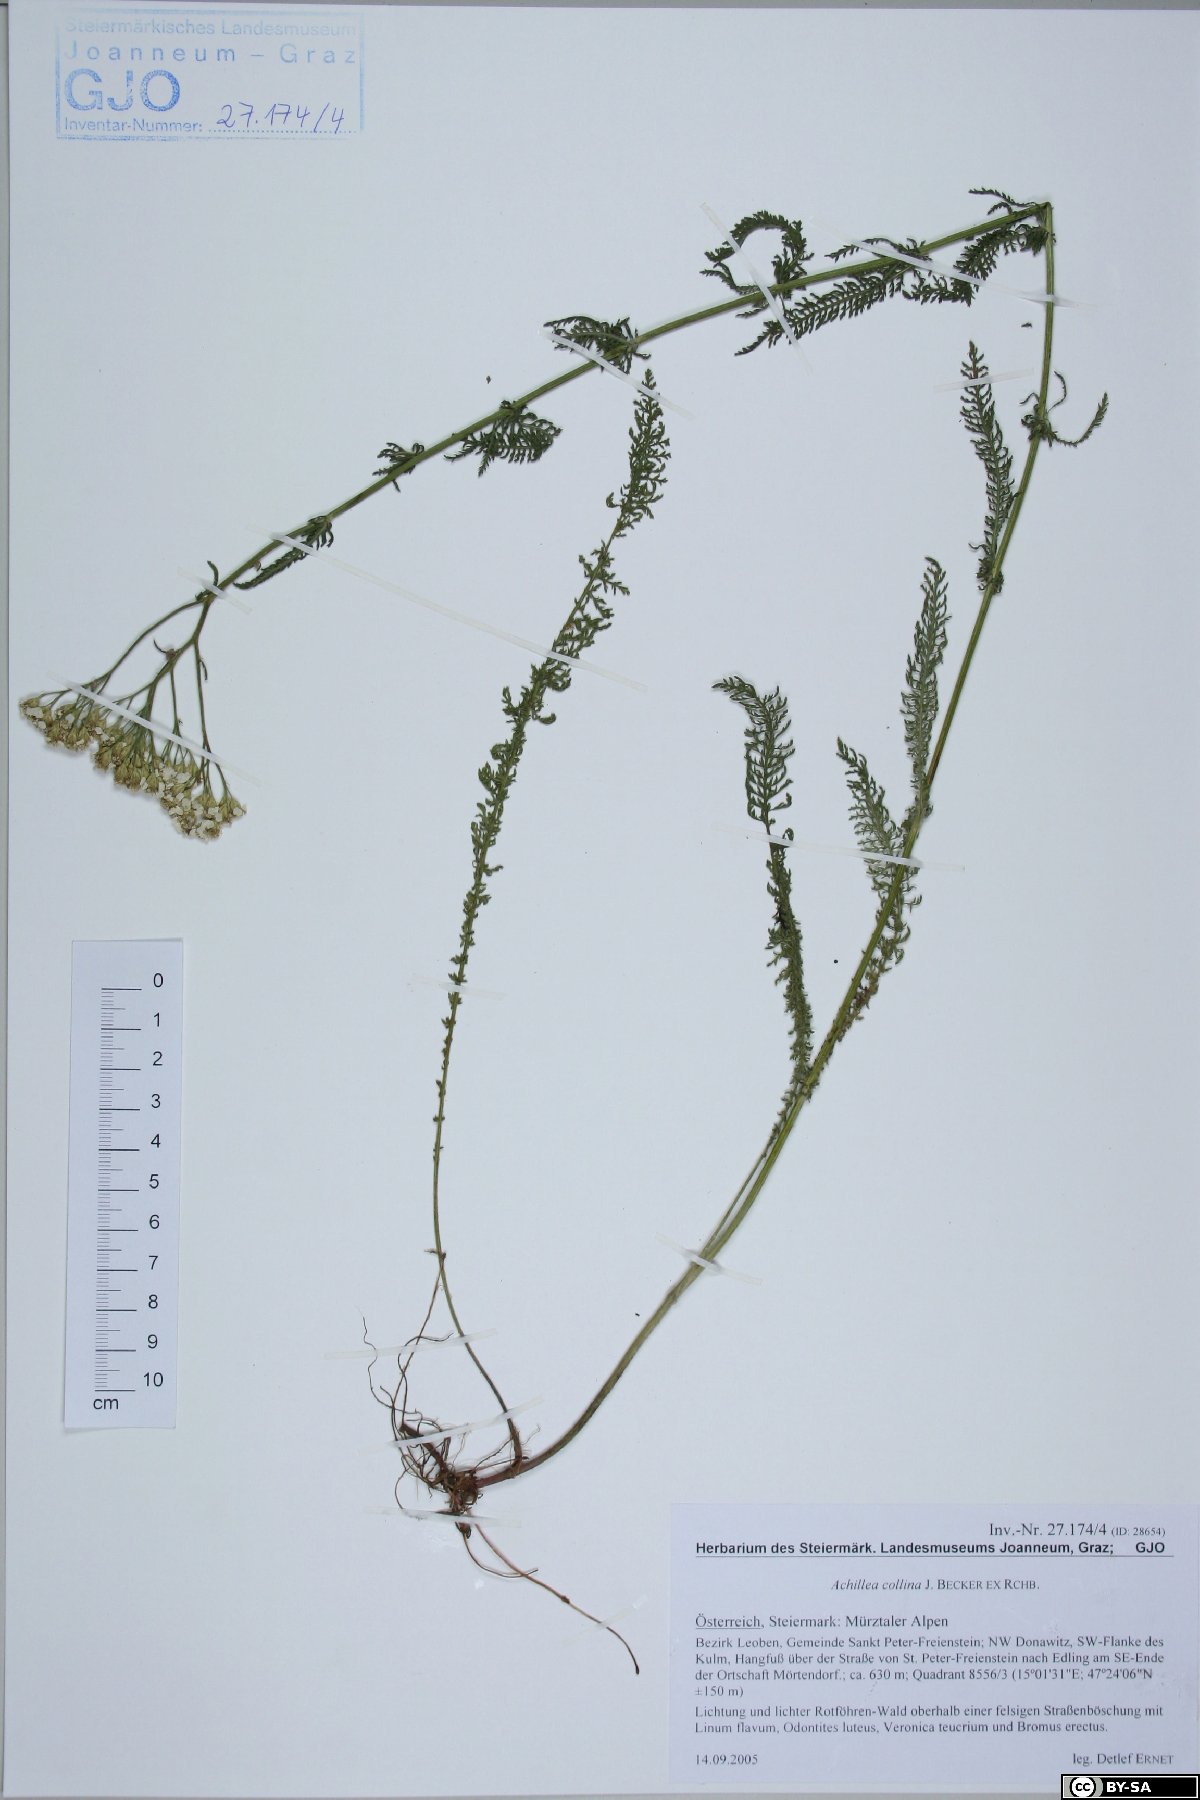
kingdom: Plantae
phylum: Tracheophyta
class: Magnoliopsida
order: Asterales
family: Asteraceae
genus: Achillea
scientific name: Achillea millefolium
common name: Yarrow
